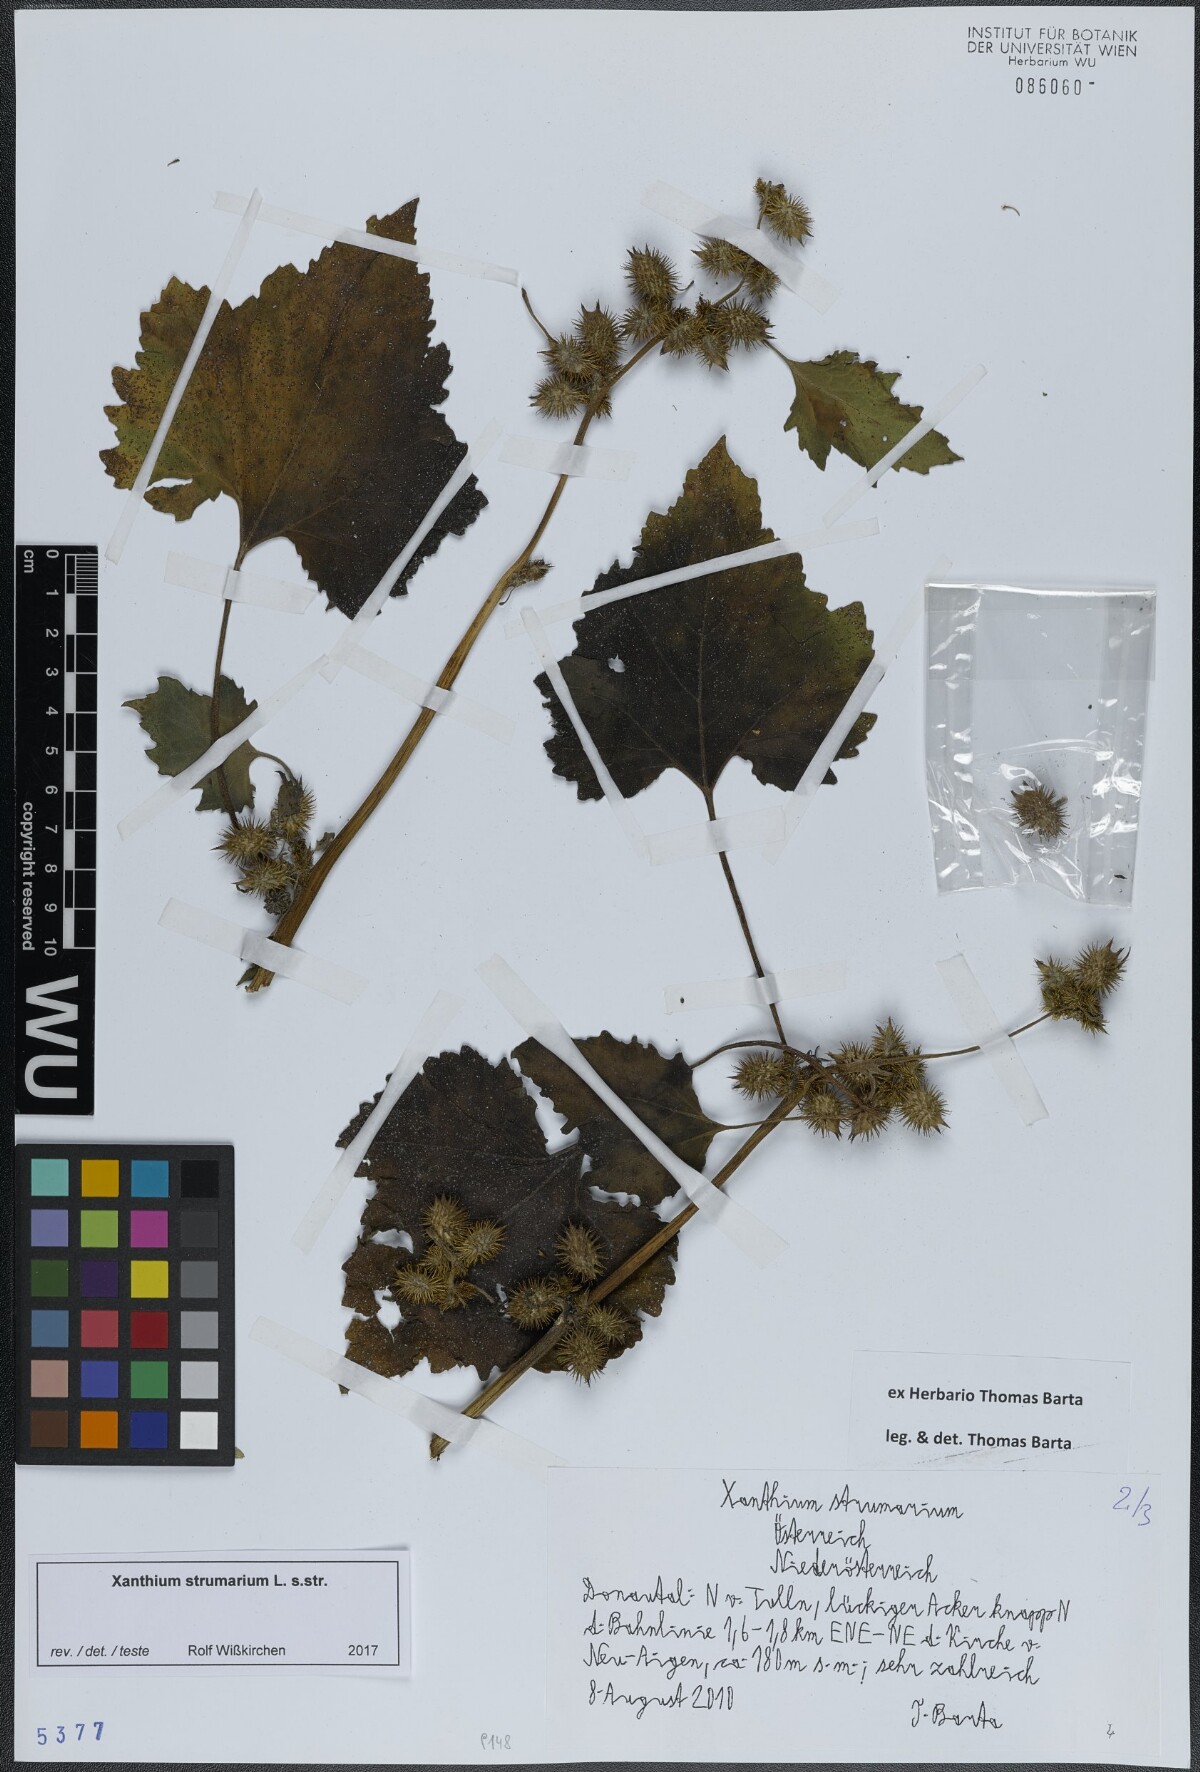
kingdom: Plantae
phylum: Tracheophyta
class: Magnoliopsida
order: Asterales
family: Asteraceae
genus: Xanthium
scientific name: Xanthium strumarium
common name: Rough cocklebur
